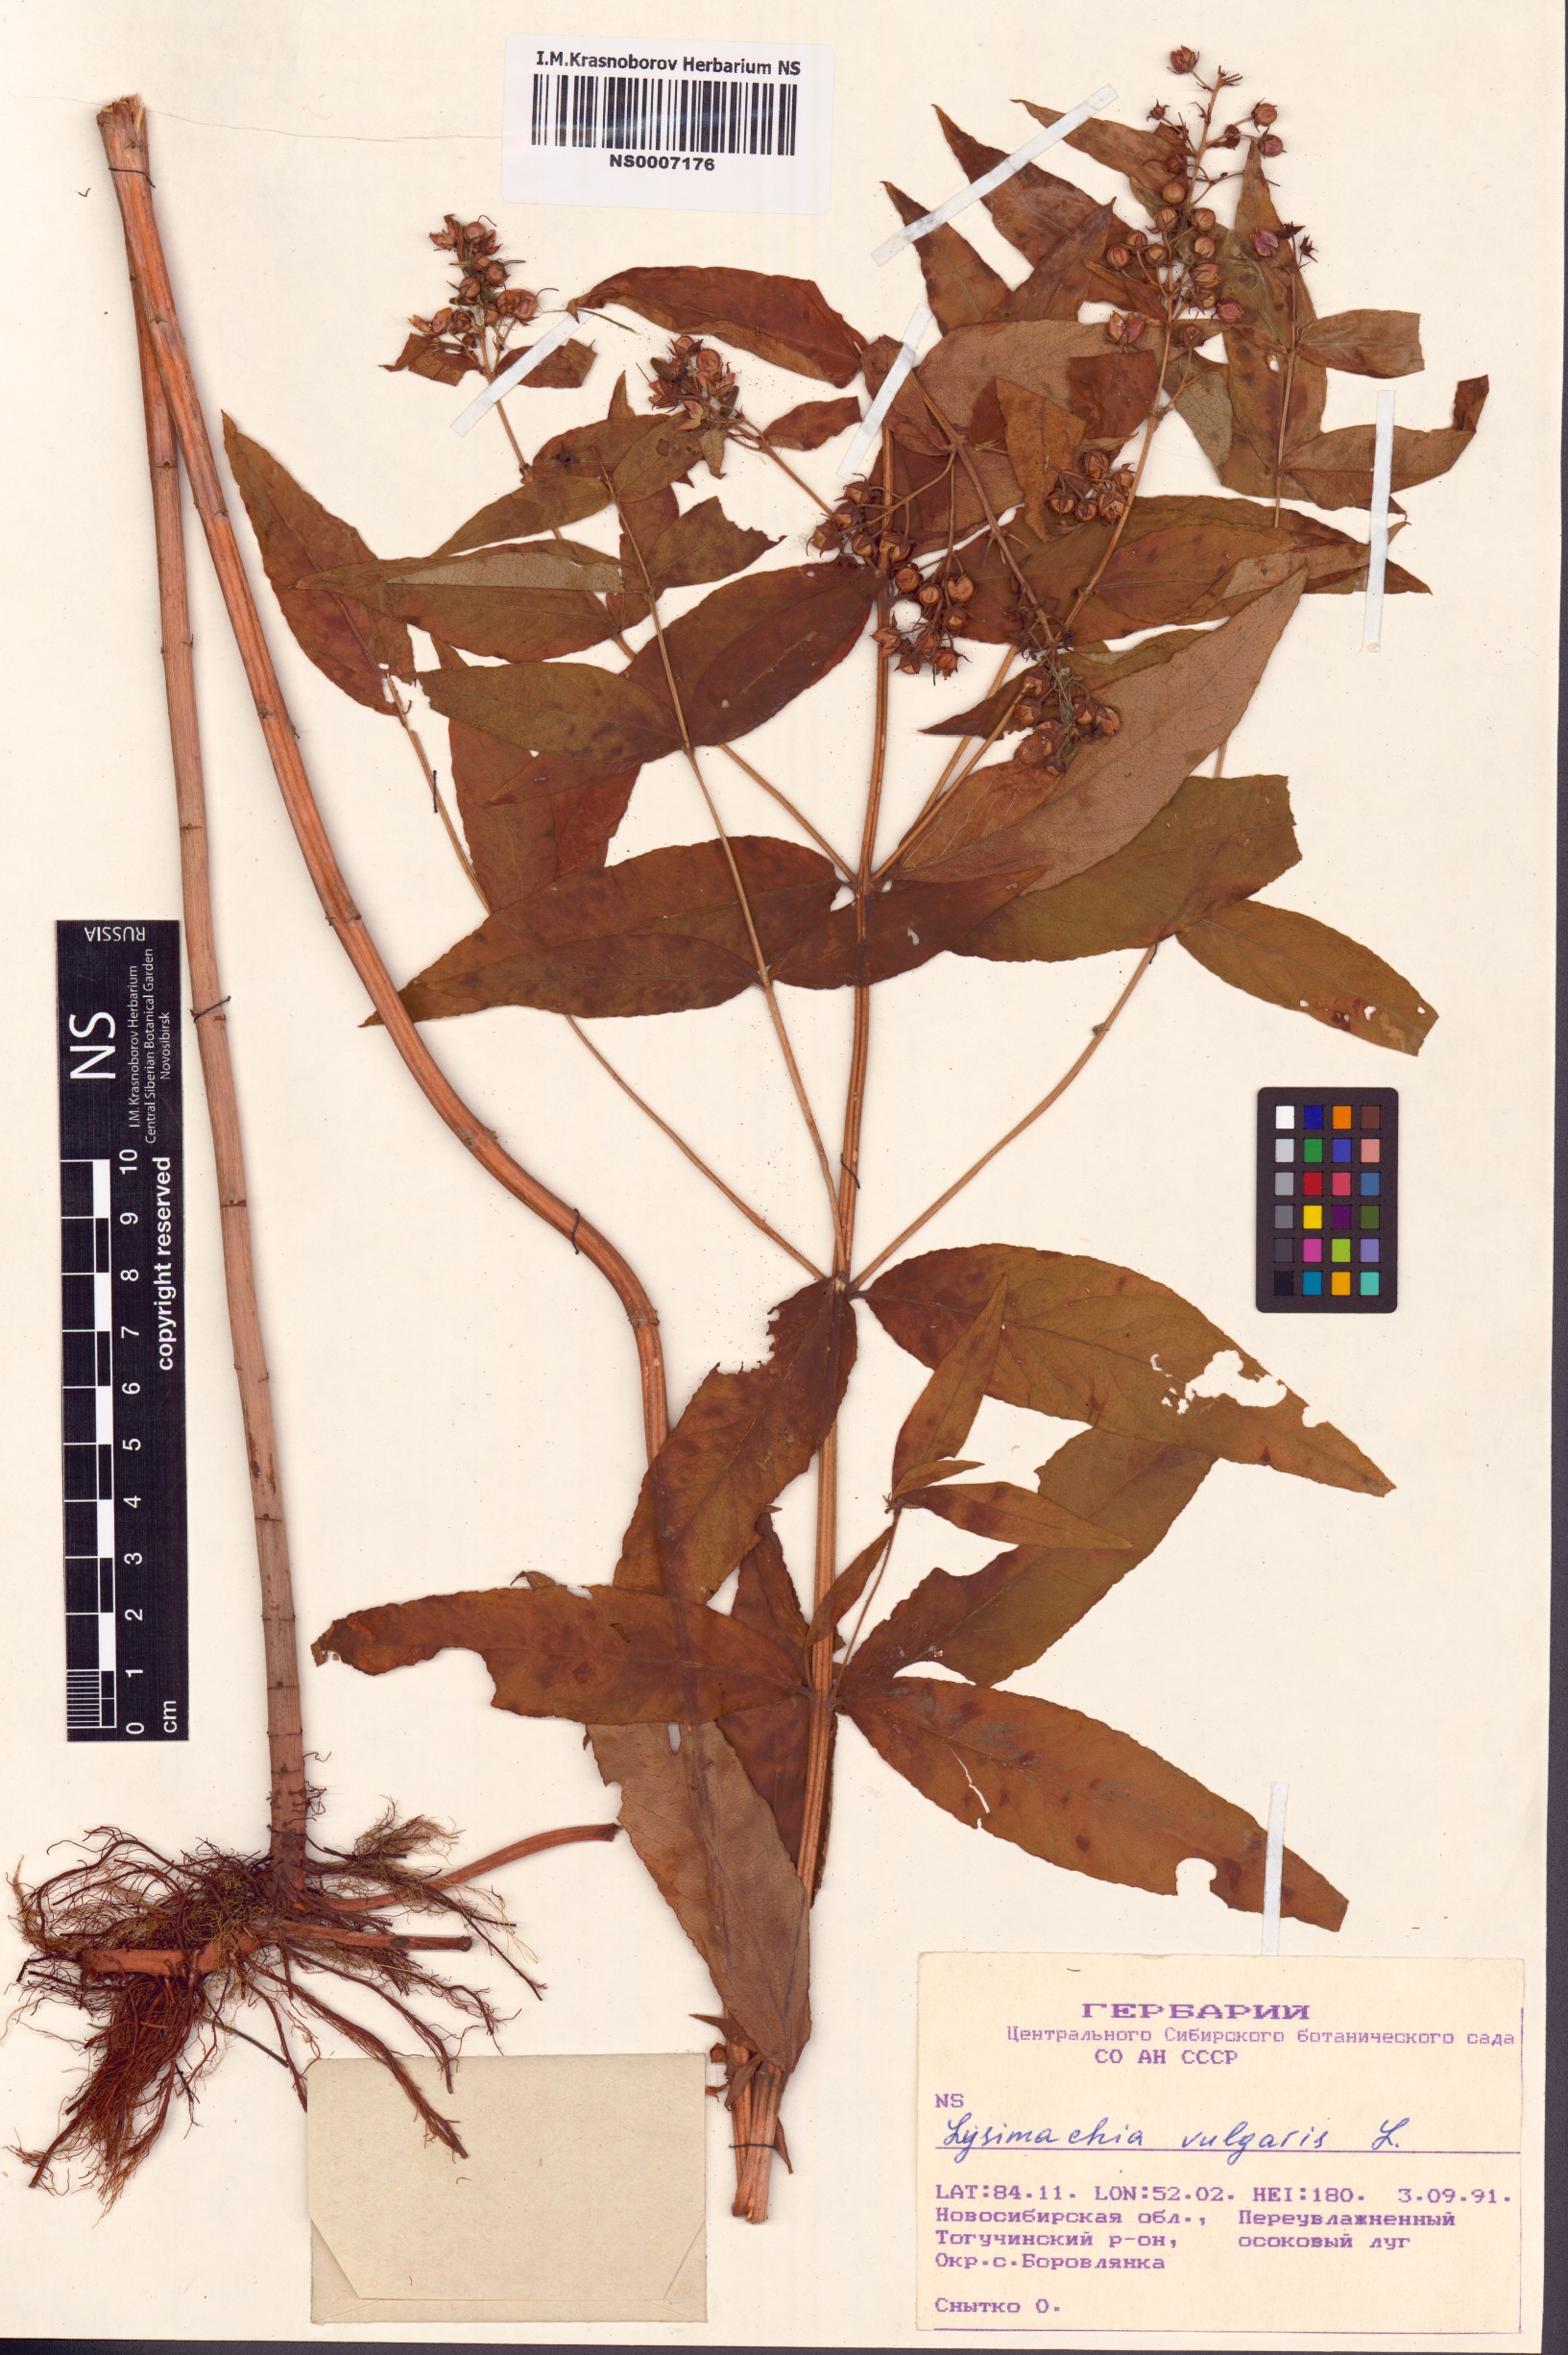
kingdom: Plantae
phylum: Tracheophyta
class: Magnoliopsida
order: Ericales
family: Primulaceae
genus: Lysimachia
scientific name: Lysimachia vulgaris
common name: Yellow loosestrife
